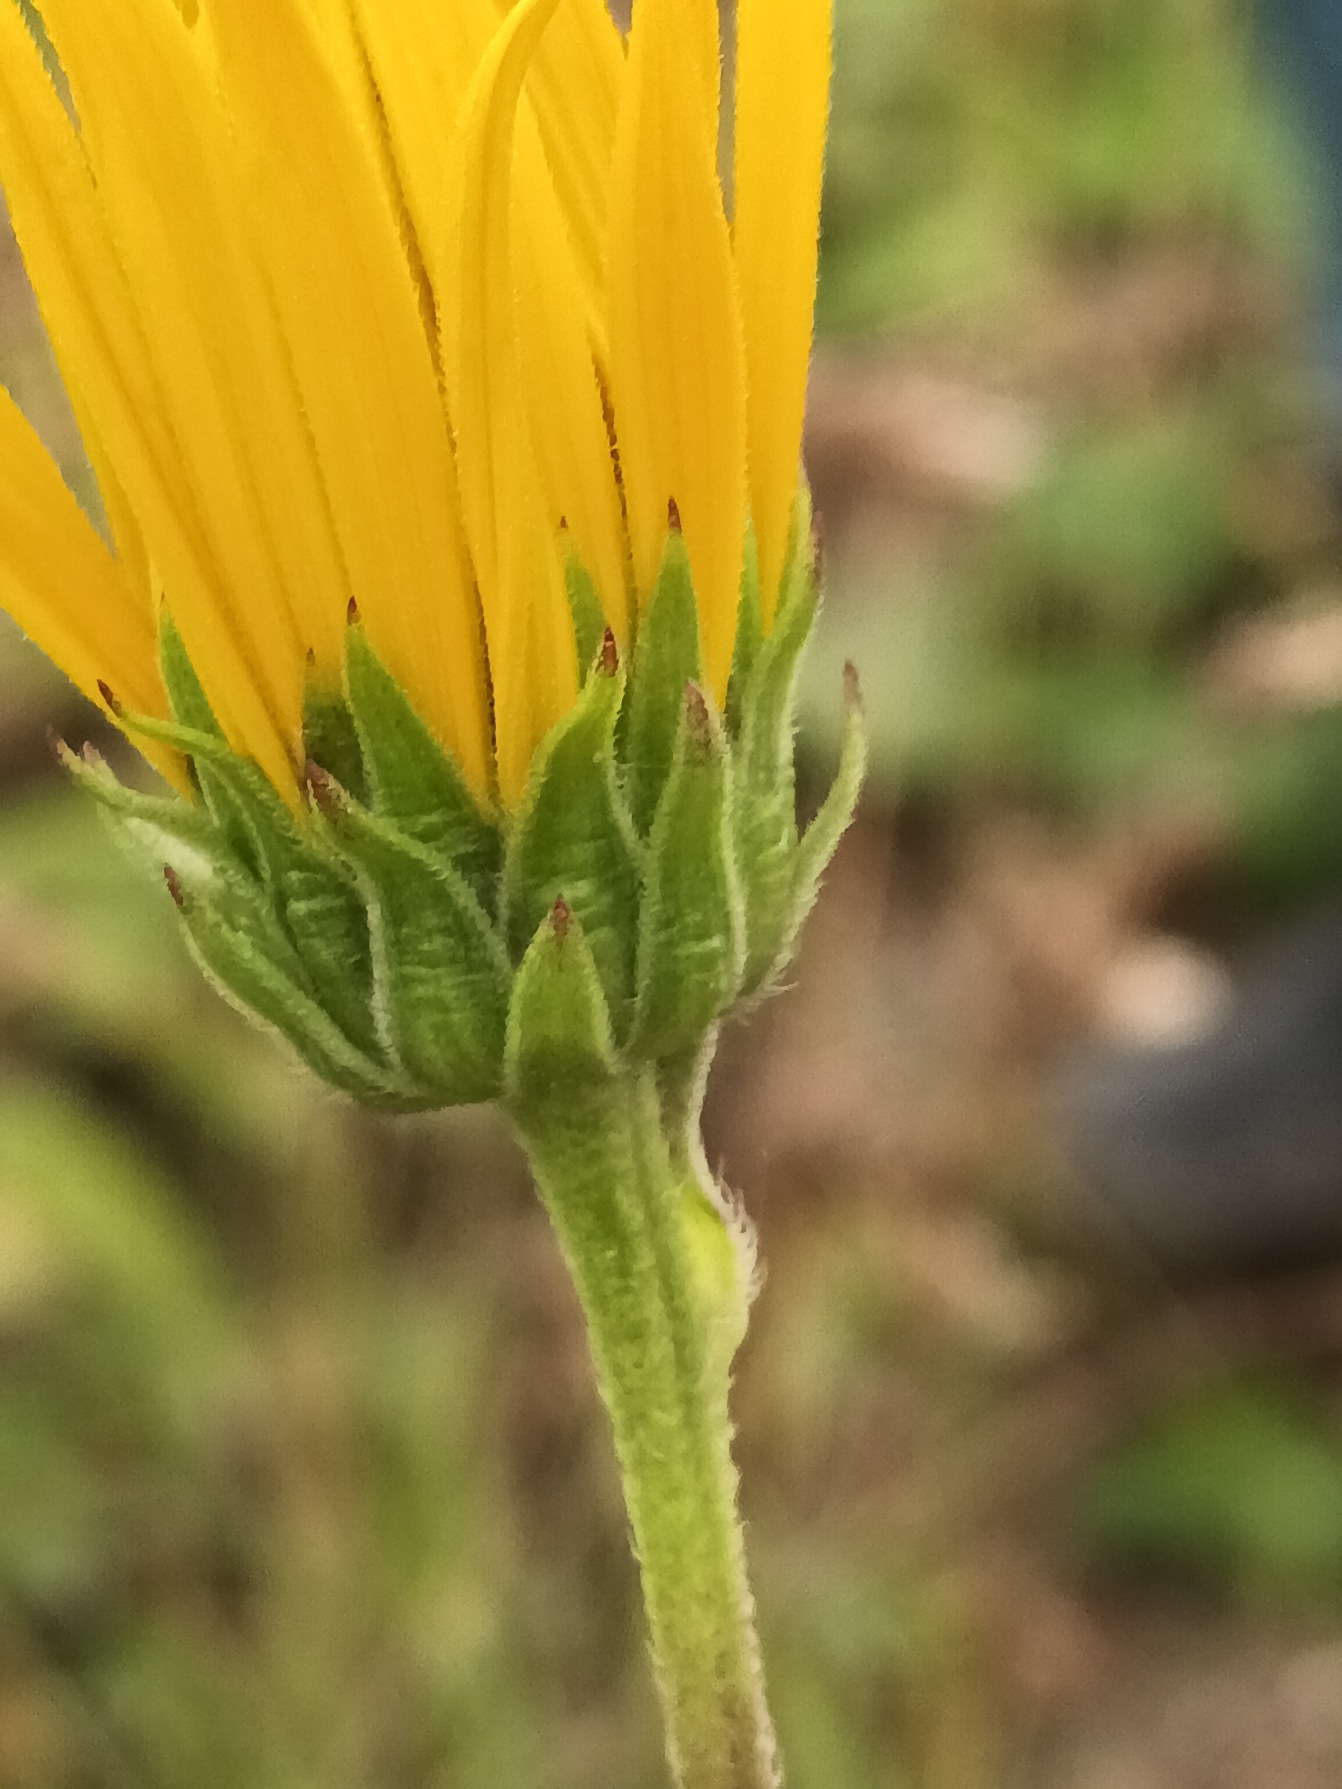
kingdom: Plantae
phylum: Tracheophyta
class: Magnoliopsida
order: Asterales
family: Asteraceae
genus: Helianthus
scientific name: Helianthus tuberosus
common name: Jordskok
